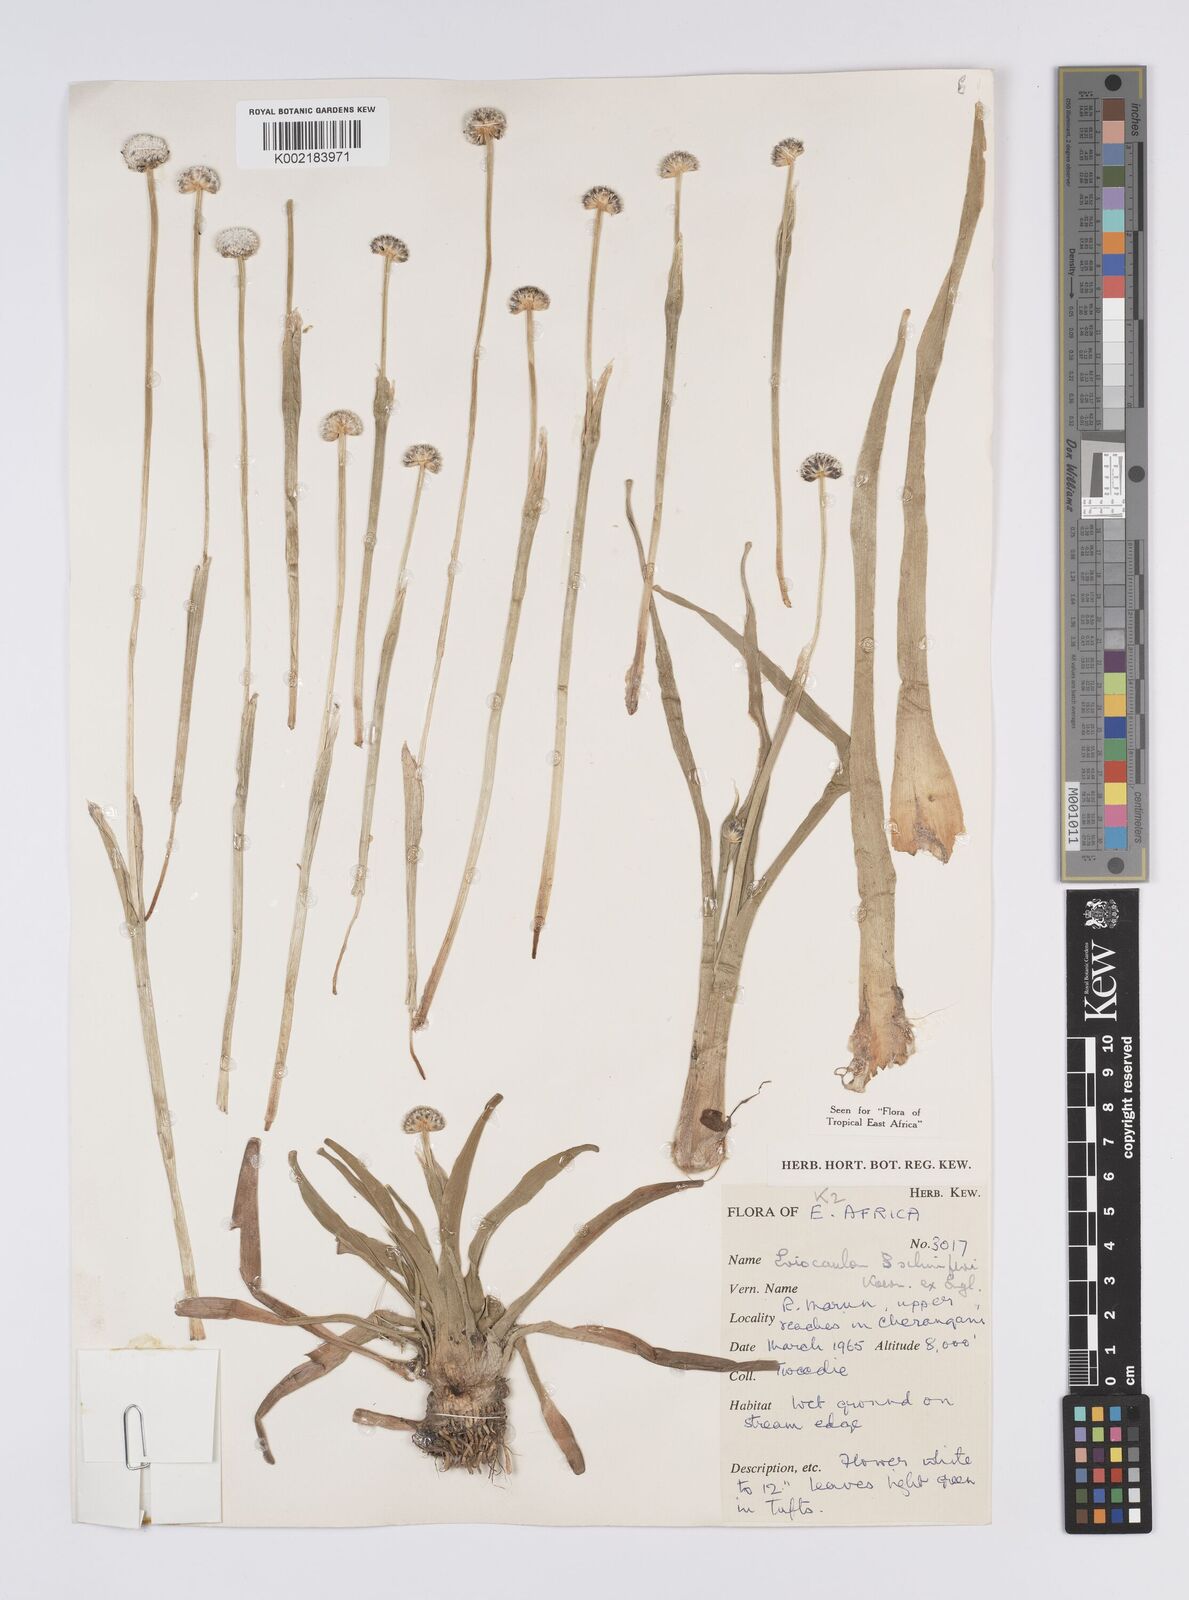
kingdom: Plantae
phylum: Tracheophyta
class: Liliopsida
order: Poales
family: Eriocaulaceae
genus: Eriocaulon
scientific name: Eriocaulon schimperi
